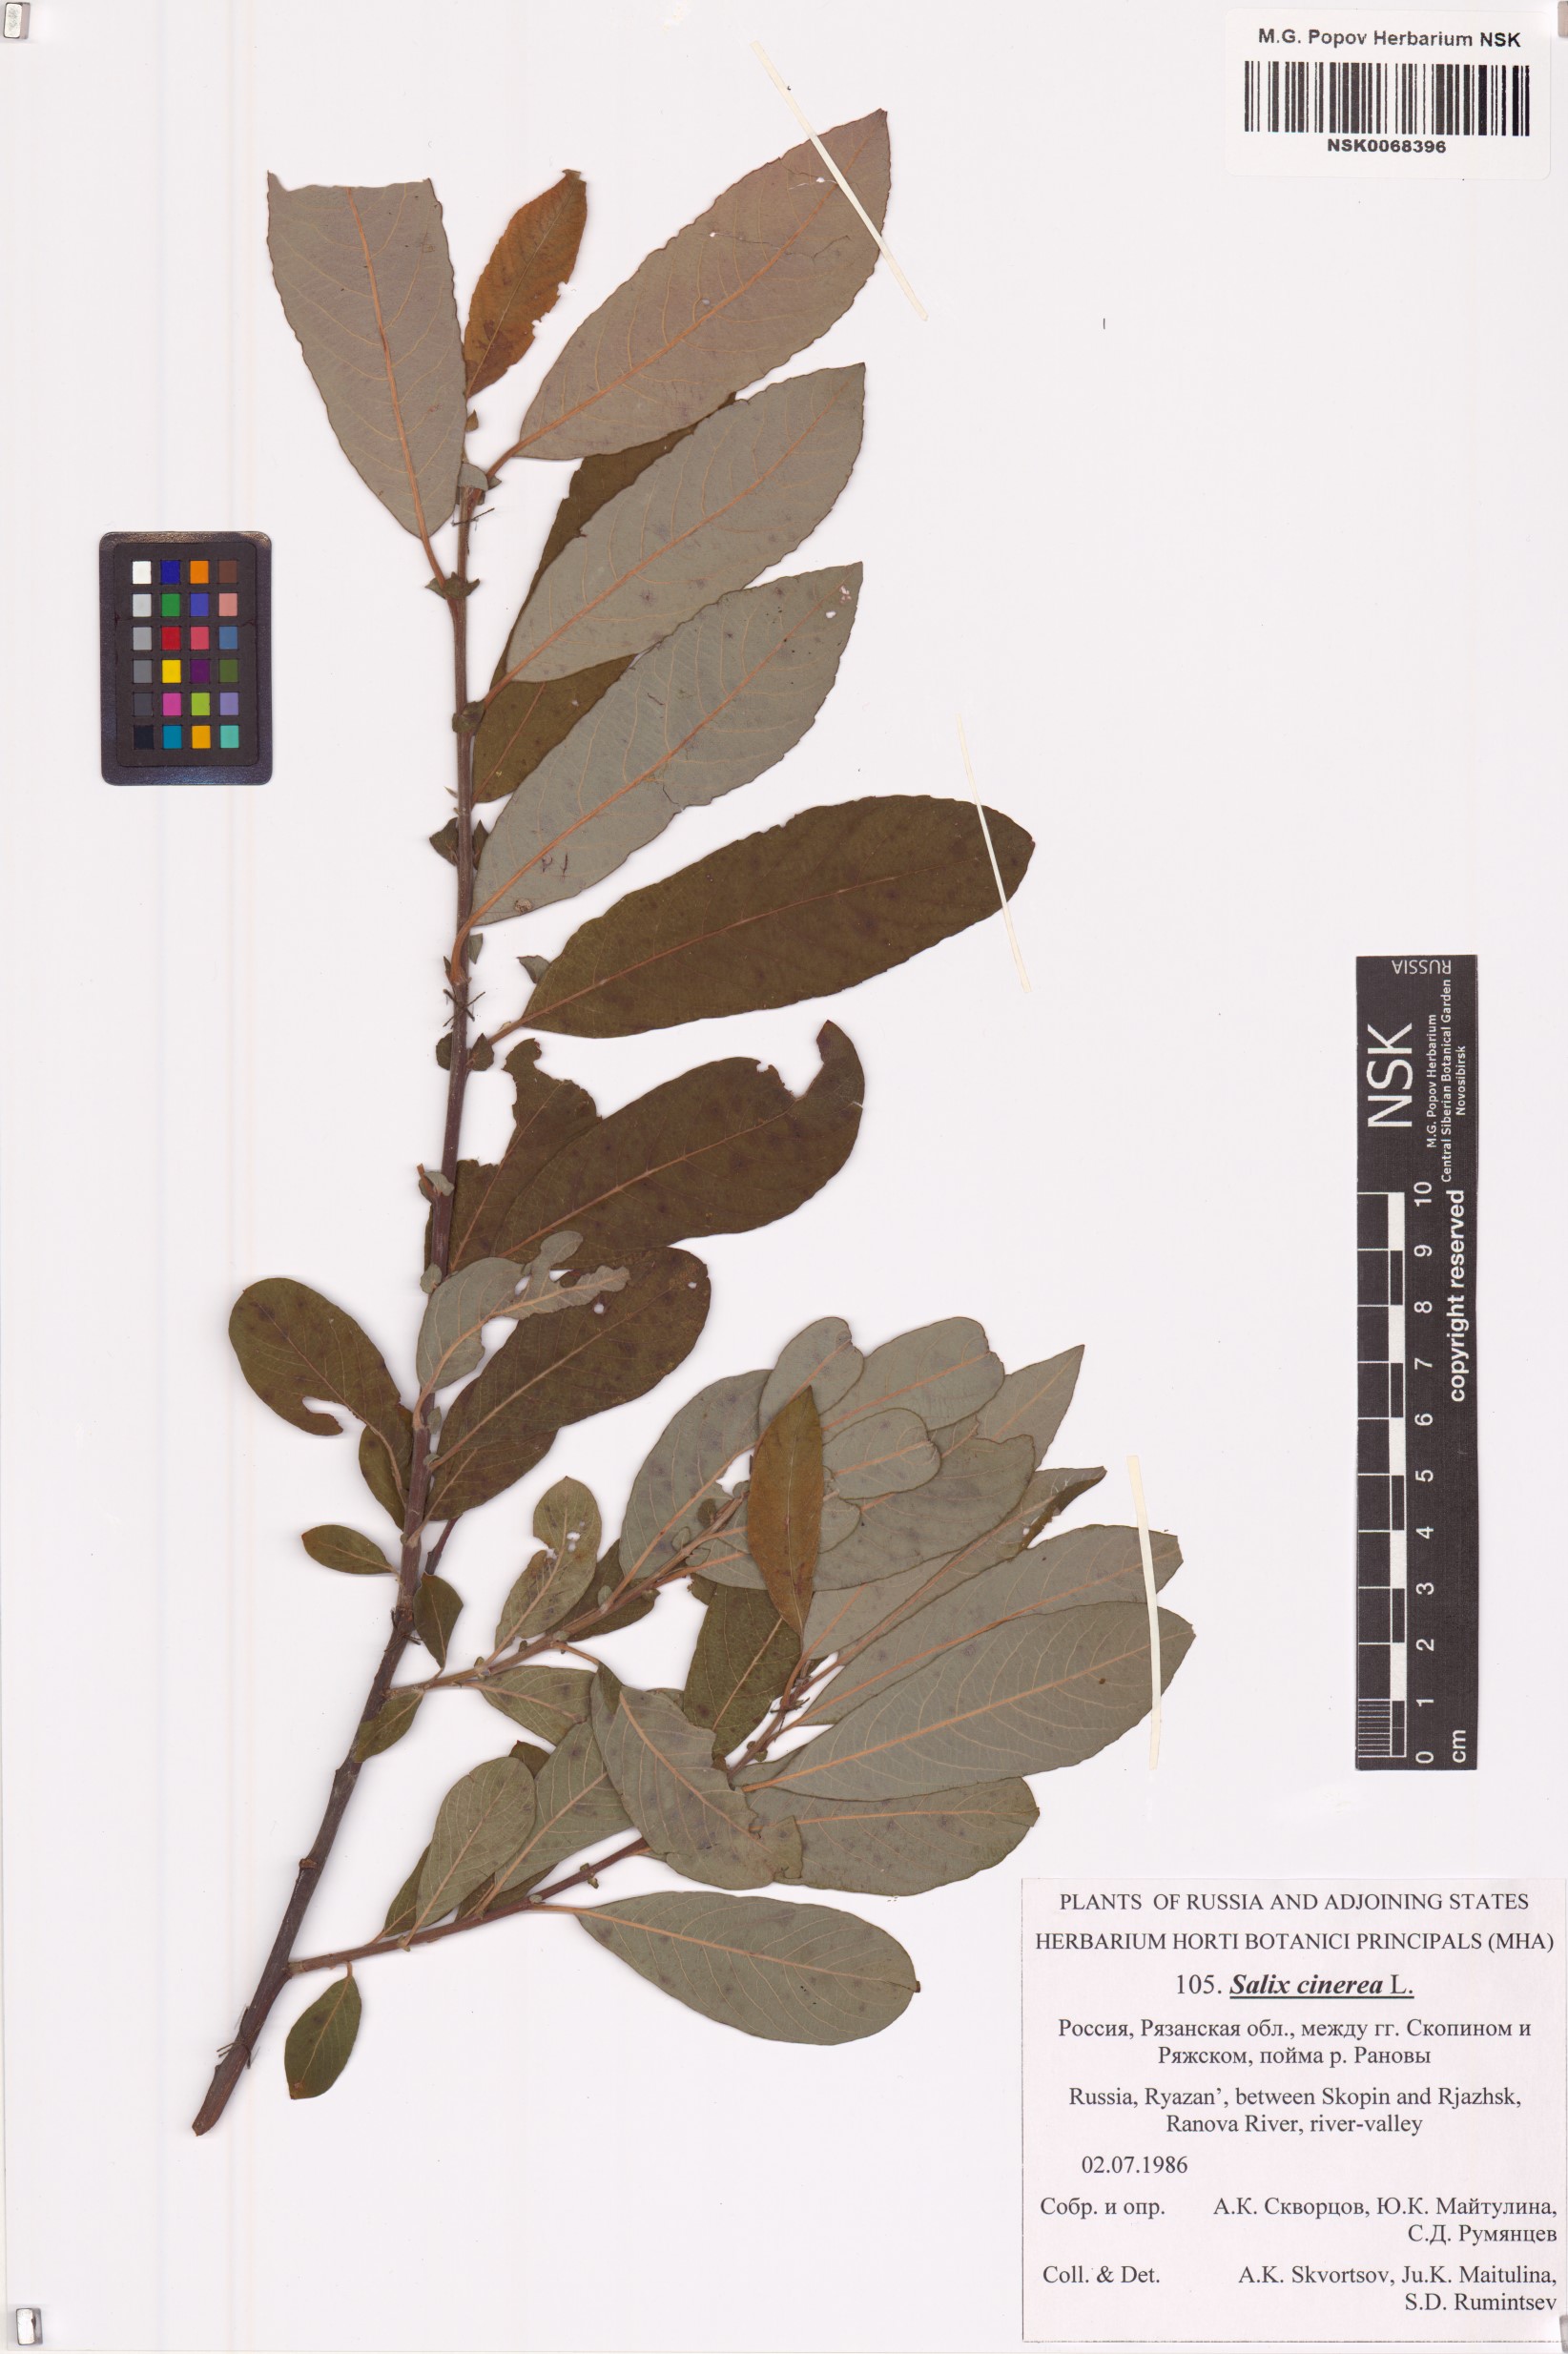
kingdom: Plantae
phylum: Tracheophyta
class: Magnoliopsida
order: Malpighiales
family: Salicaceae
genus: Salix
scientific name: Salix cinerea
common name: Common sallow
